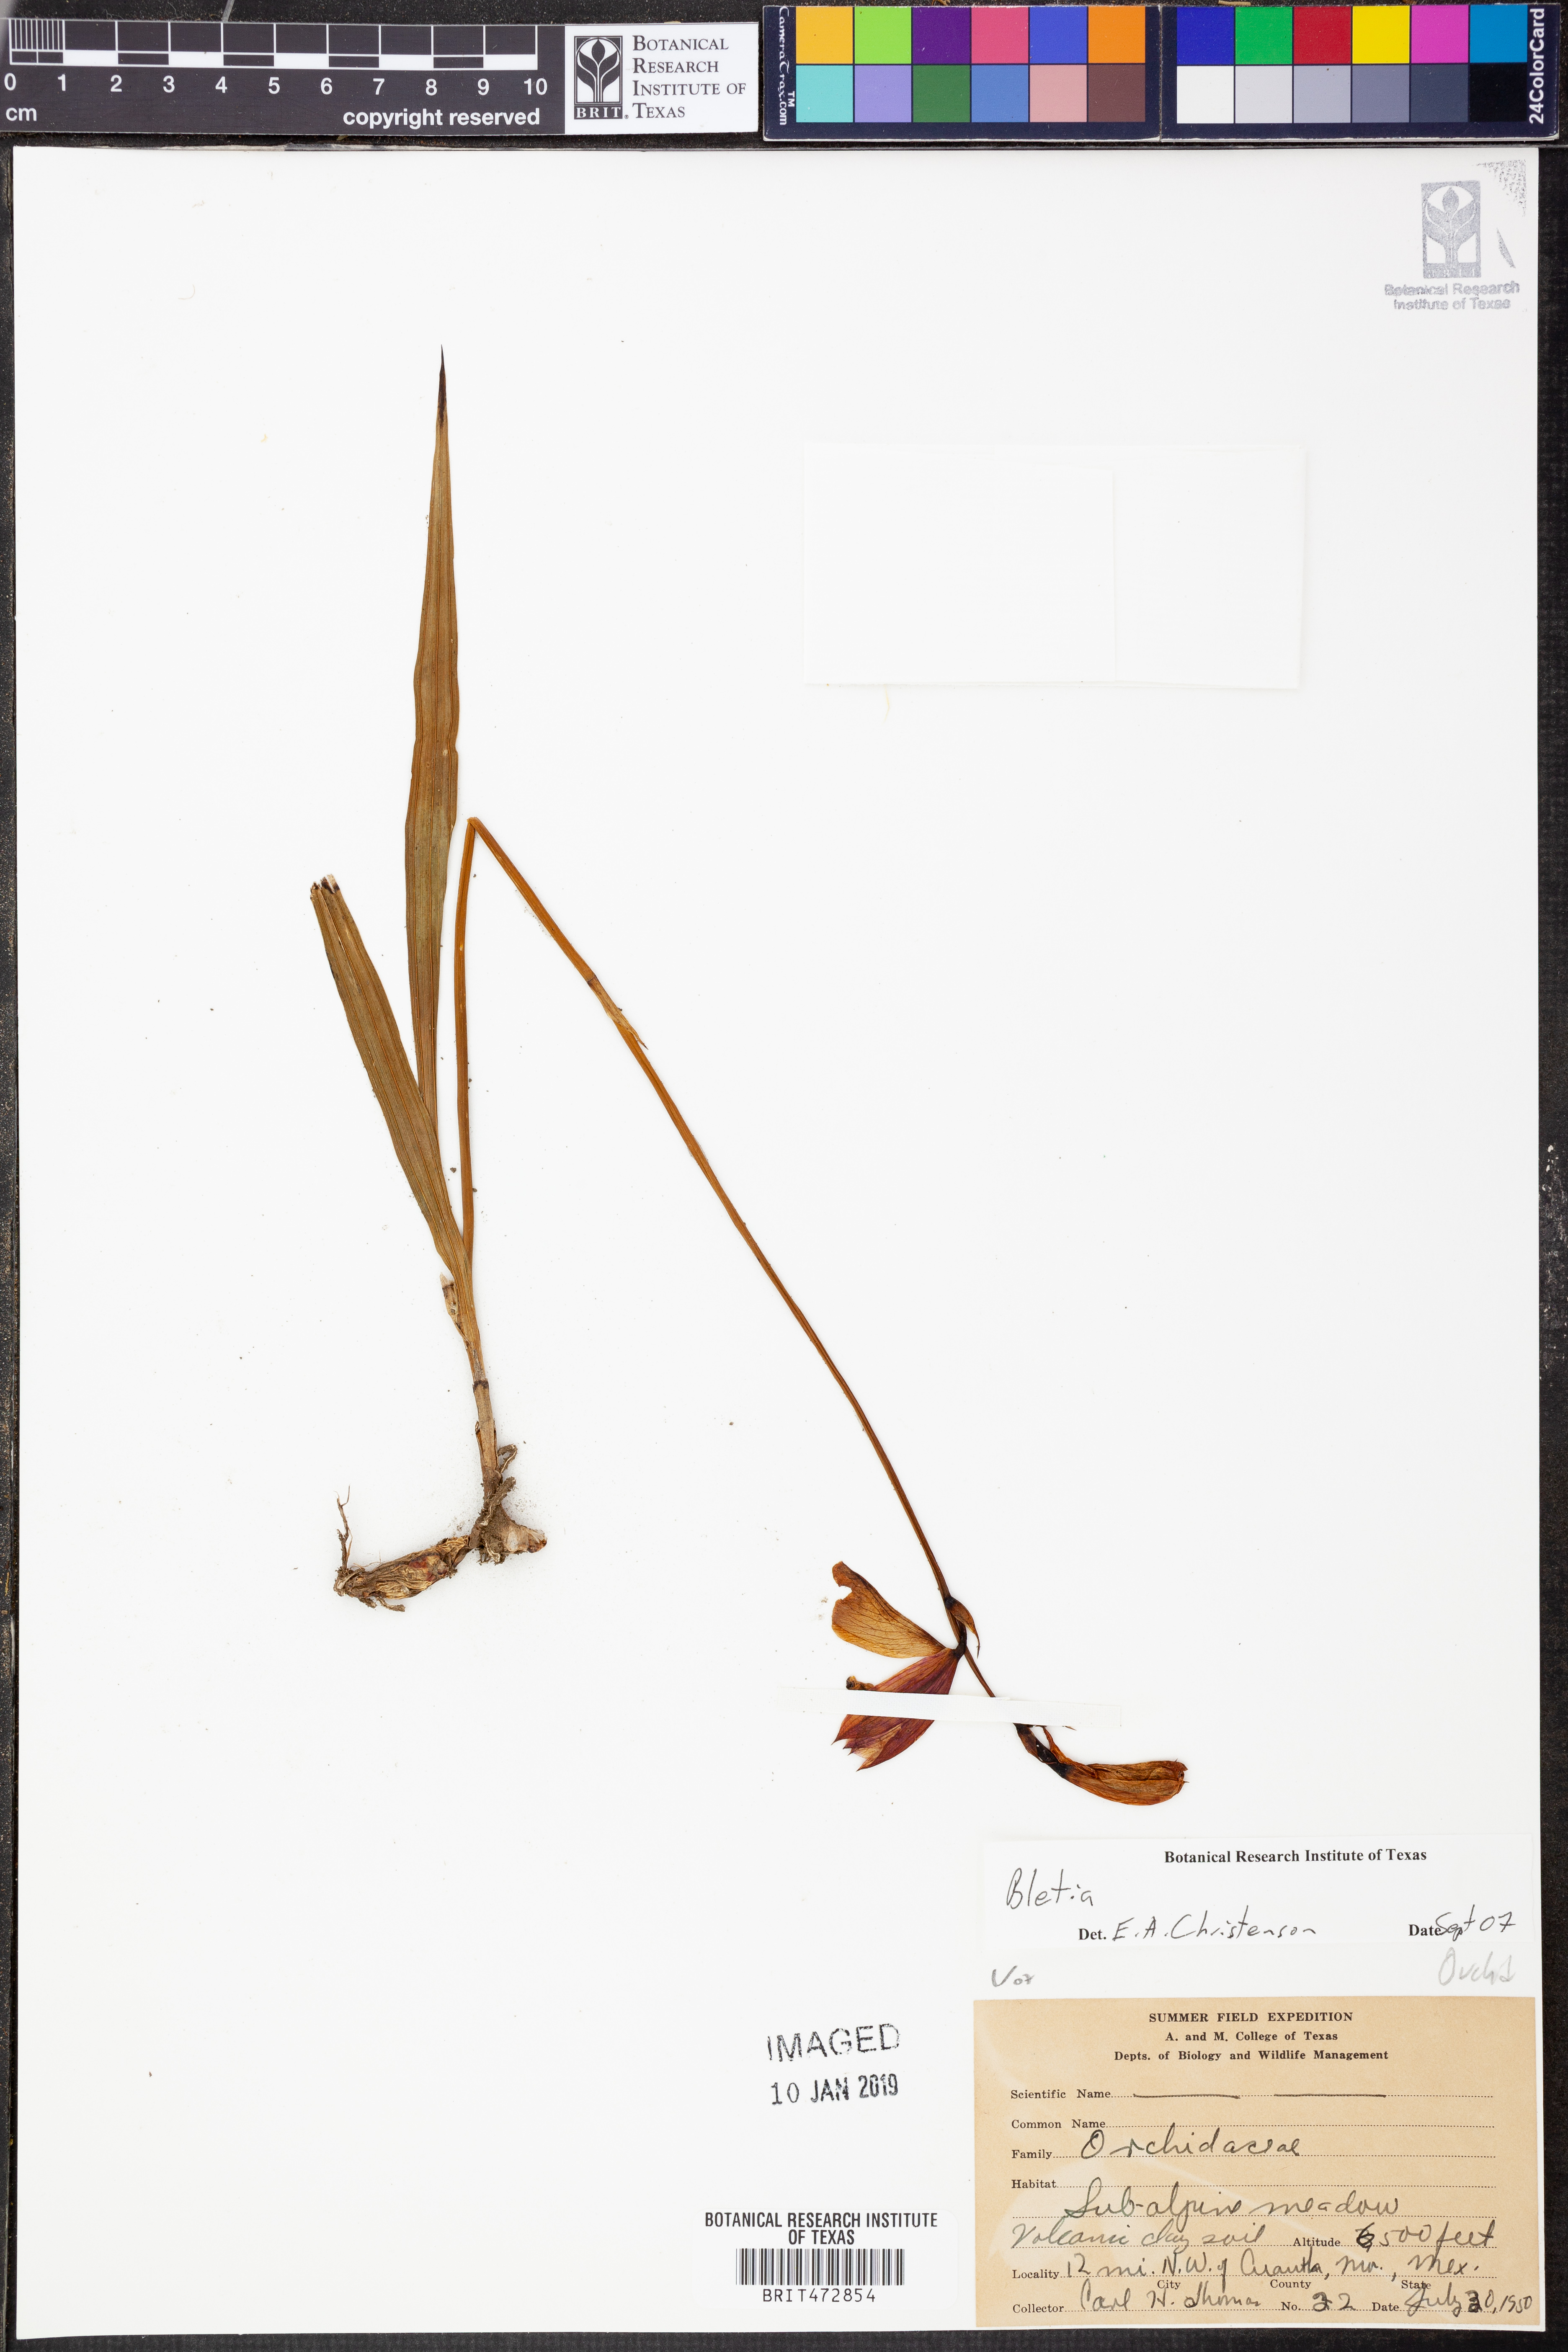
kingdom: Plantae
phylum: Tracheophyta
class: Liliopsida
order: Asparagales
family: Orchidaceae
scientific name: Orchidaceae
